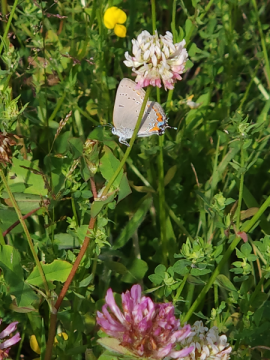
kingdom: Animalia
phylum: Arthropoda
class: Insecta
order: Lepidoptera
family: Lycaenidae
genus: Strymon
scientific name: Strymon acadica
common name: Acadian Hairstreak
